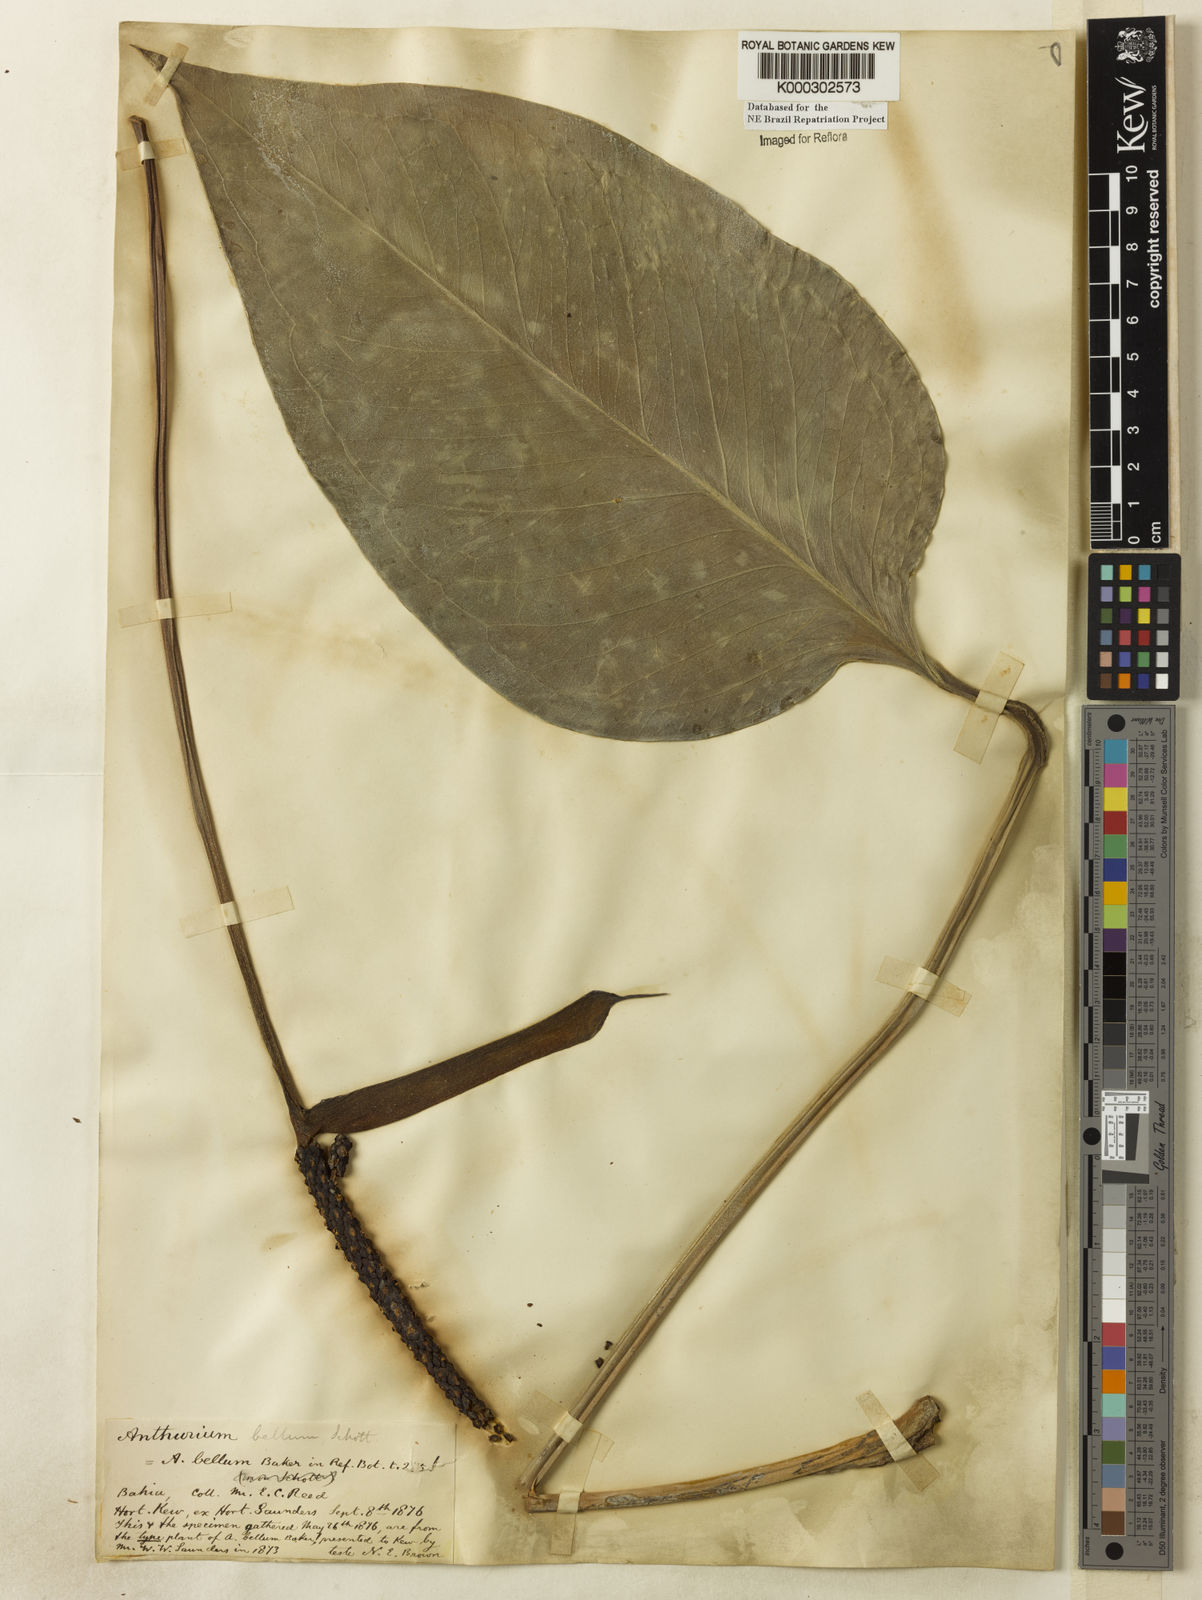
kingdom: Plantae
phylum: Tracheophyta
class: Liliopsida
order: Alismatales
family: Araceae
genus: Anthurium
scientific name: Anthurium bellum
